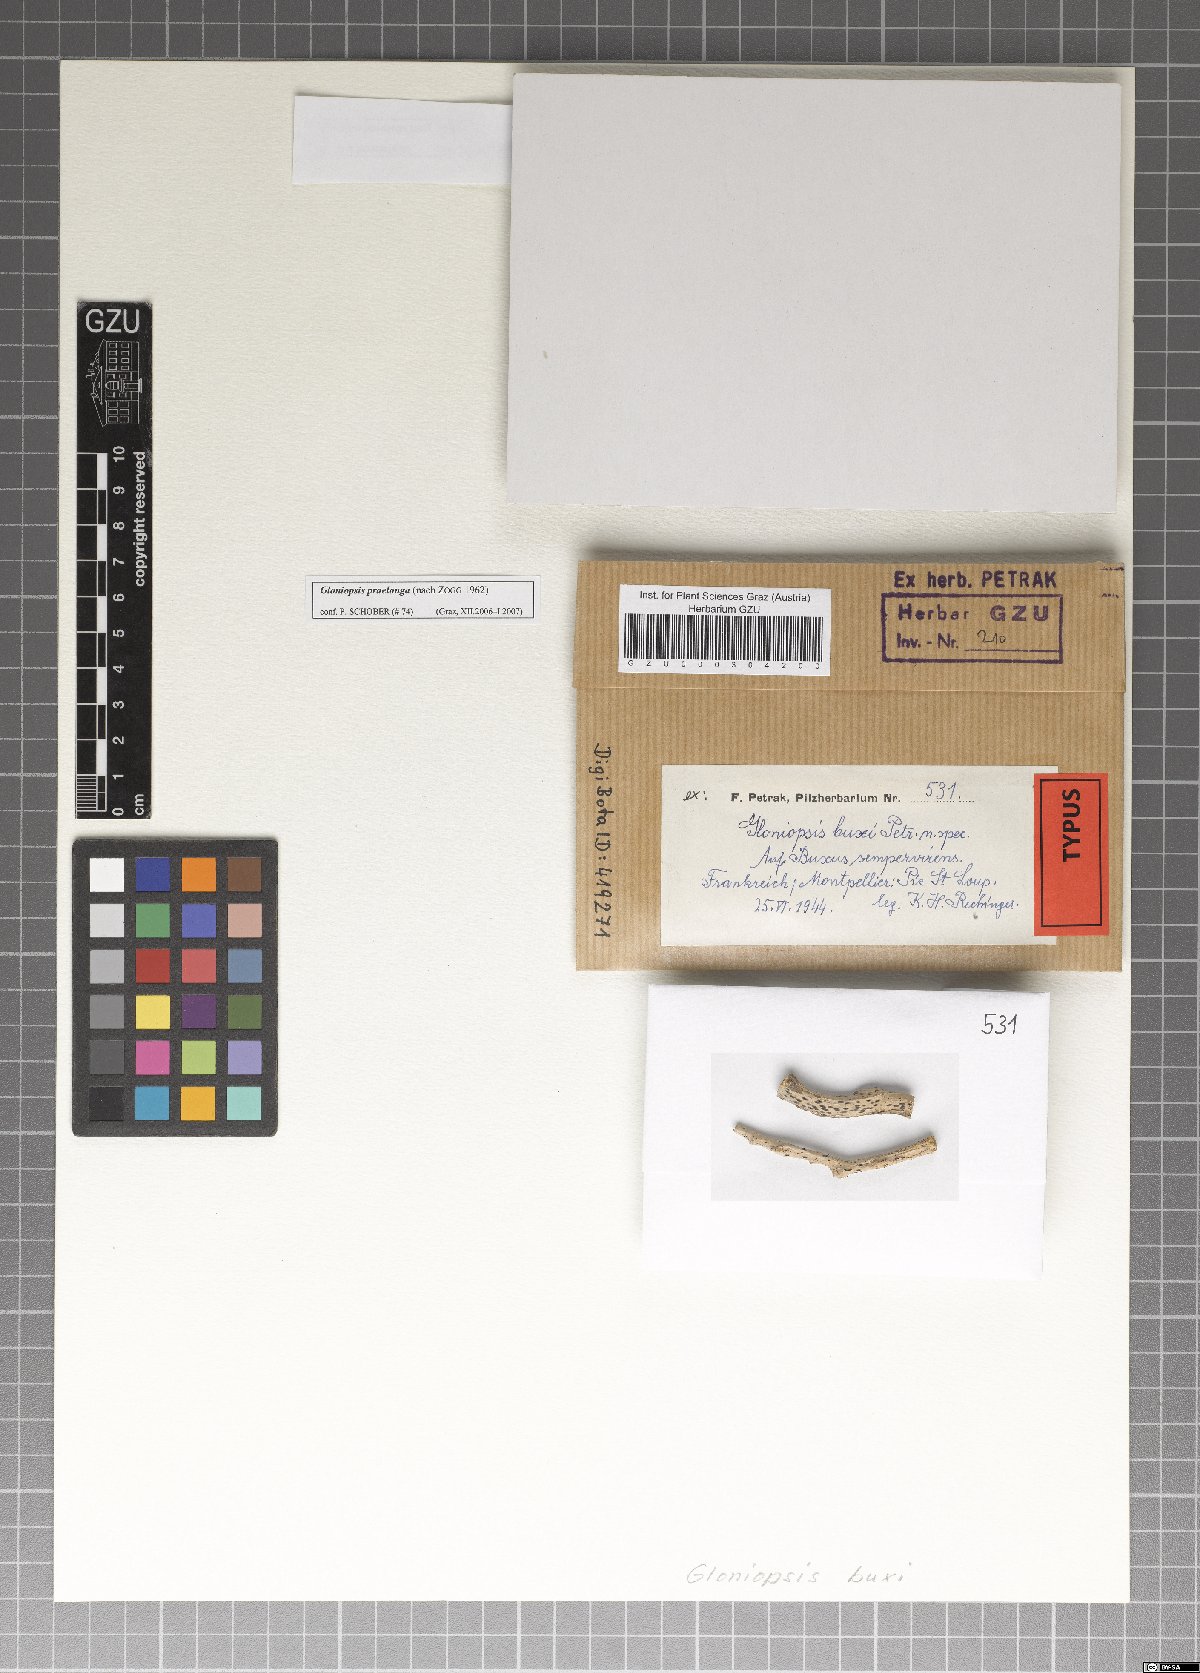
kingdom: Fungi
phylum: Ascomycota
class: Dothideomycetes
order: Hysteriales
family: Hysteriaceae
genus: Gloniopsis
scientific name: Gloniopsis buxi
